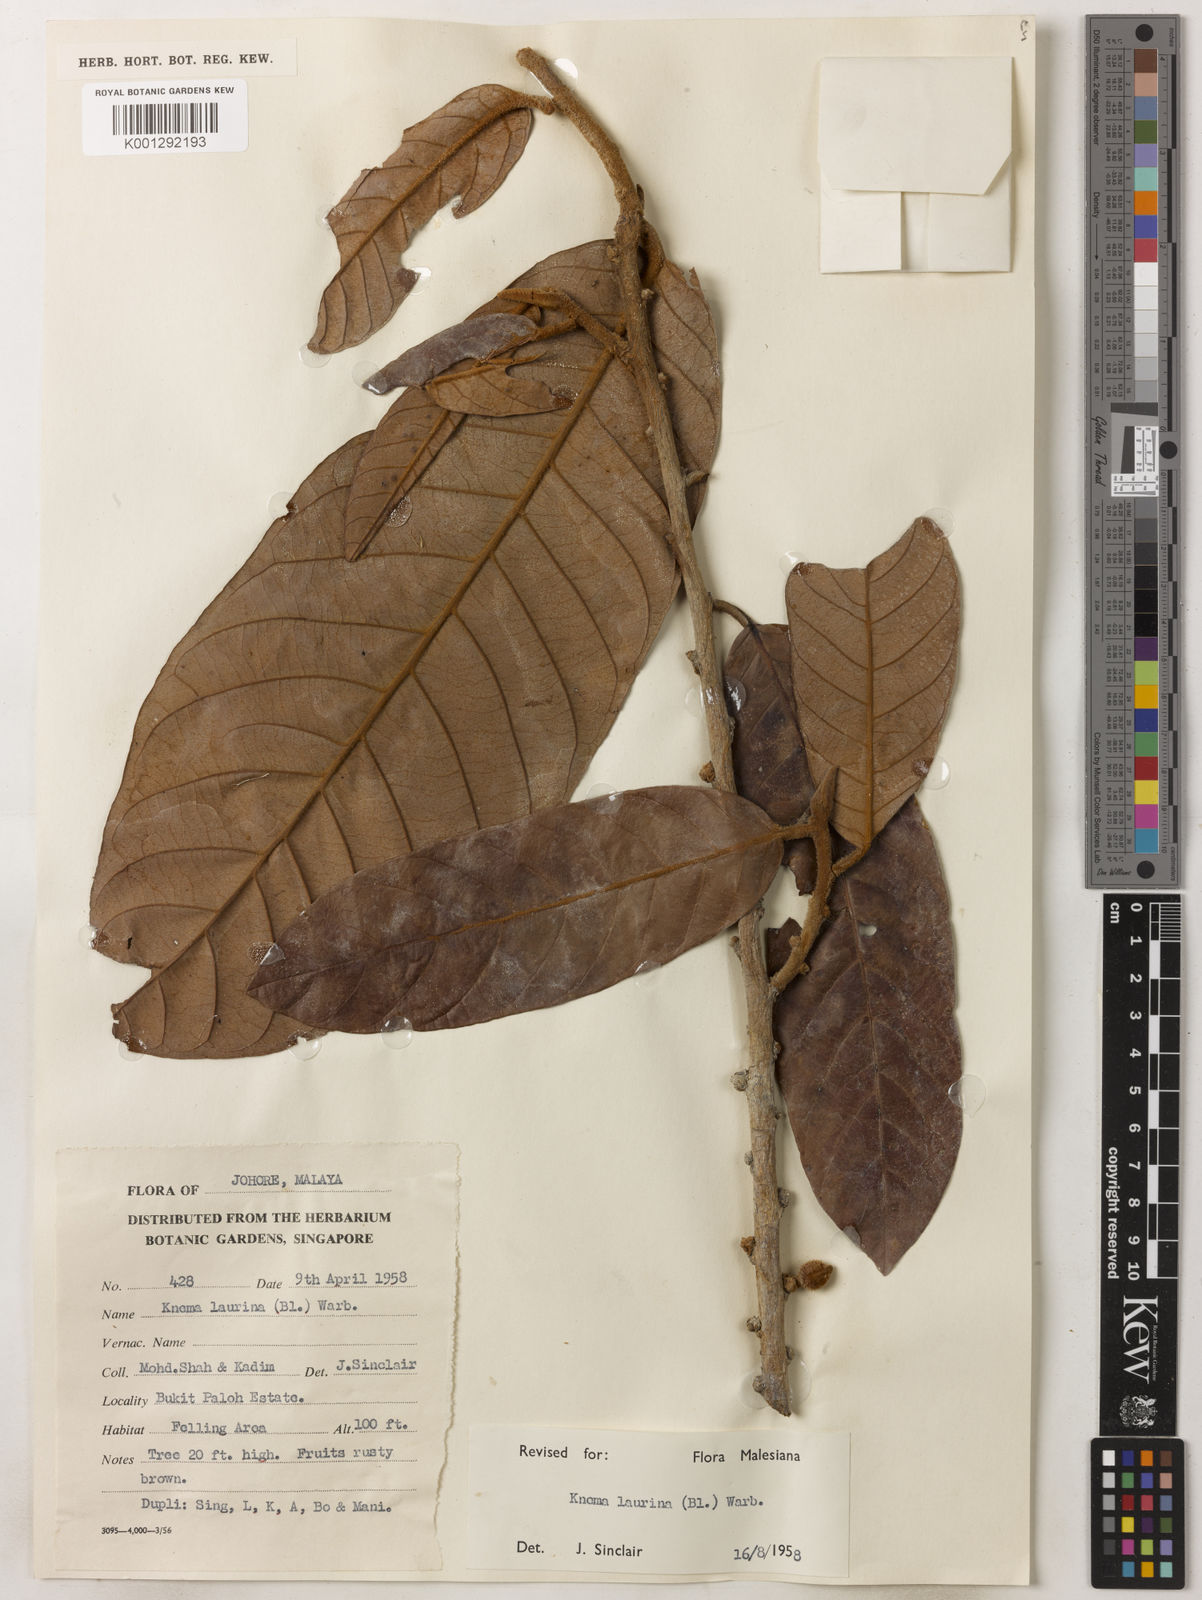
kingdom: Plantae
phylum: Tracheophyta
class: Magnoliopsida
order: Magnoliales
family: Myristicaceae
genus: Knema
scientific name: Knema laurina
